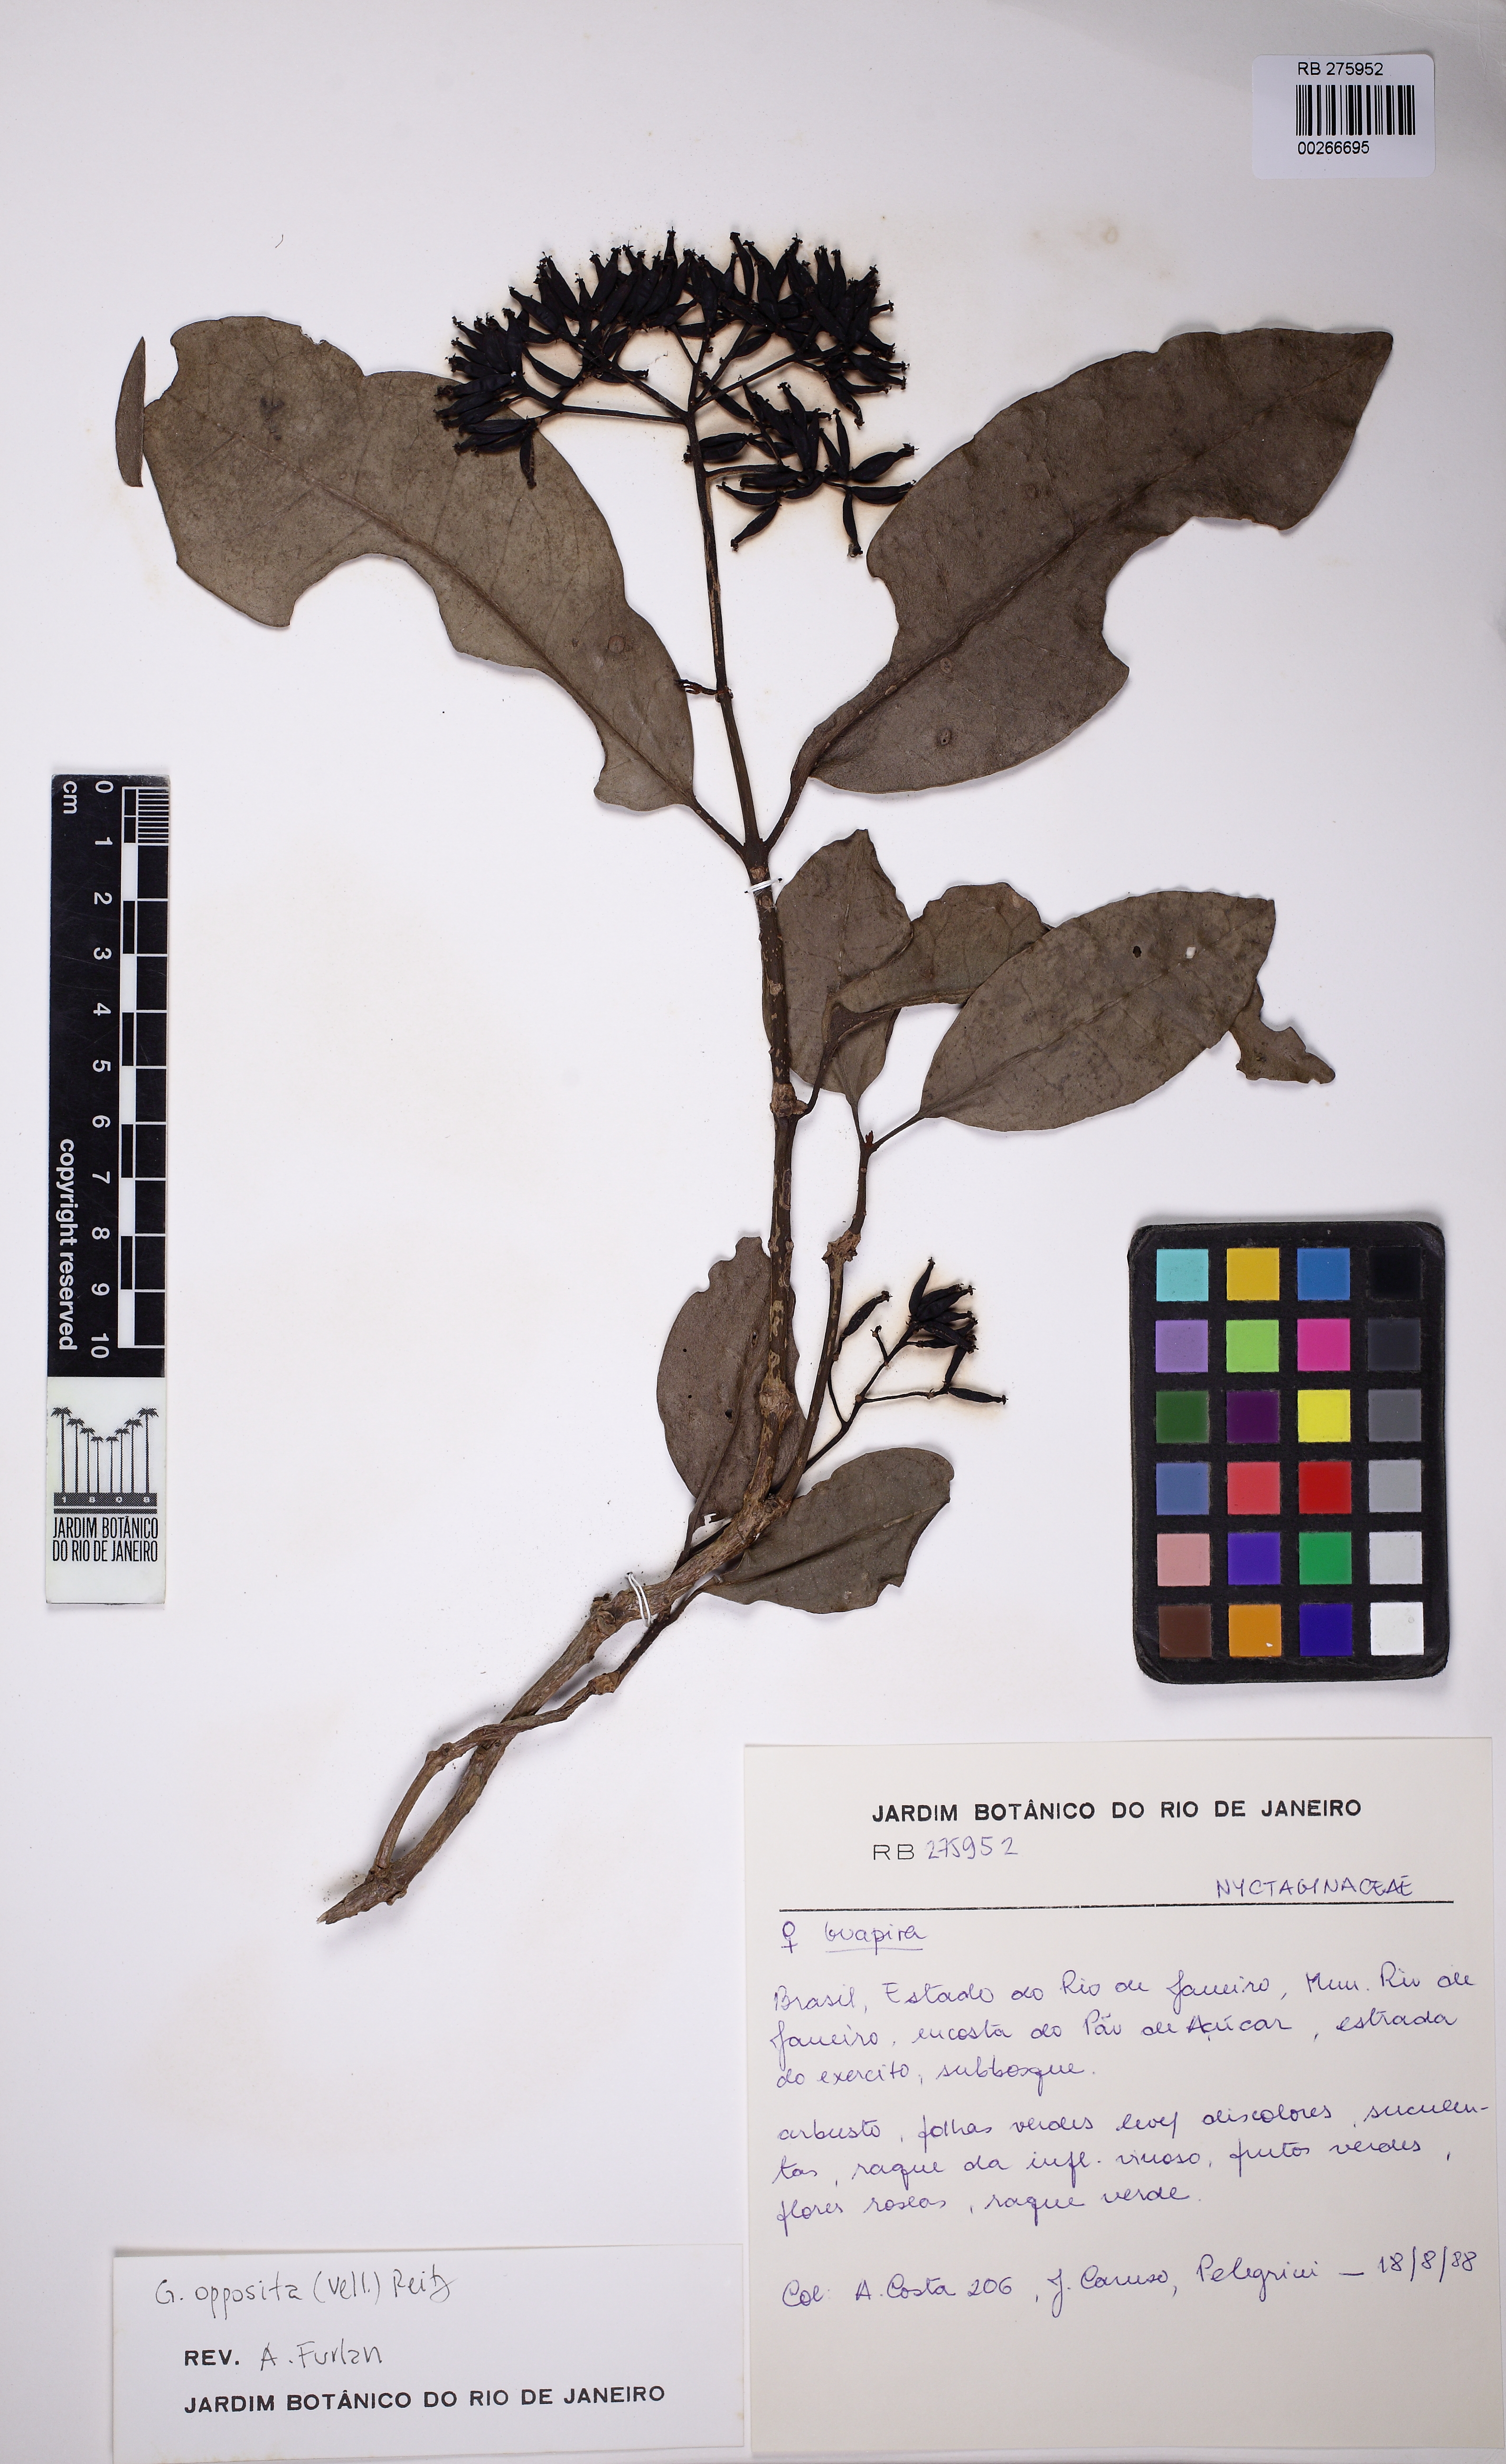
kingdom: Plantae
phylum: Tracheophyta
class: Magnoliopsida
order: Caryophyllales
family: Nyctaginaceae
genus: Guapira
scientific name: Guapira opposita
